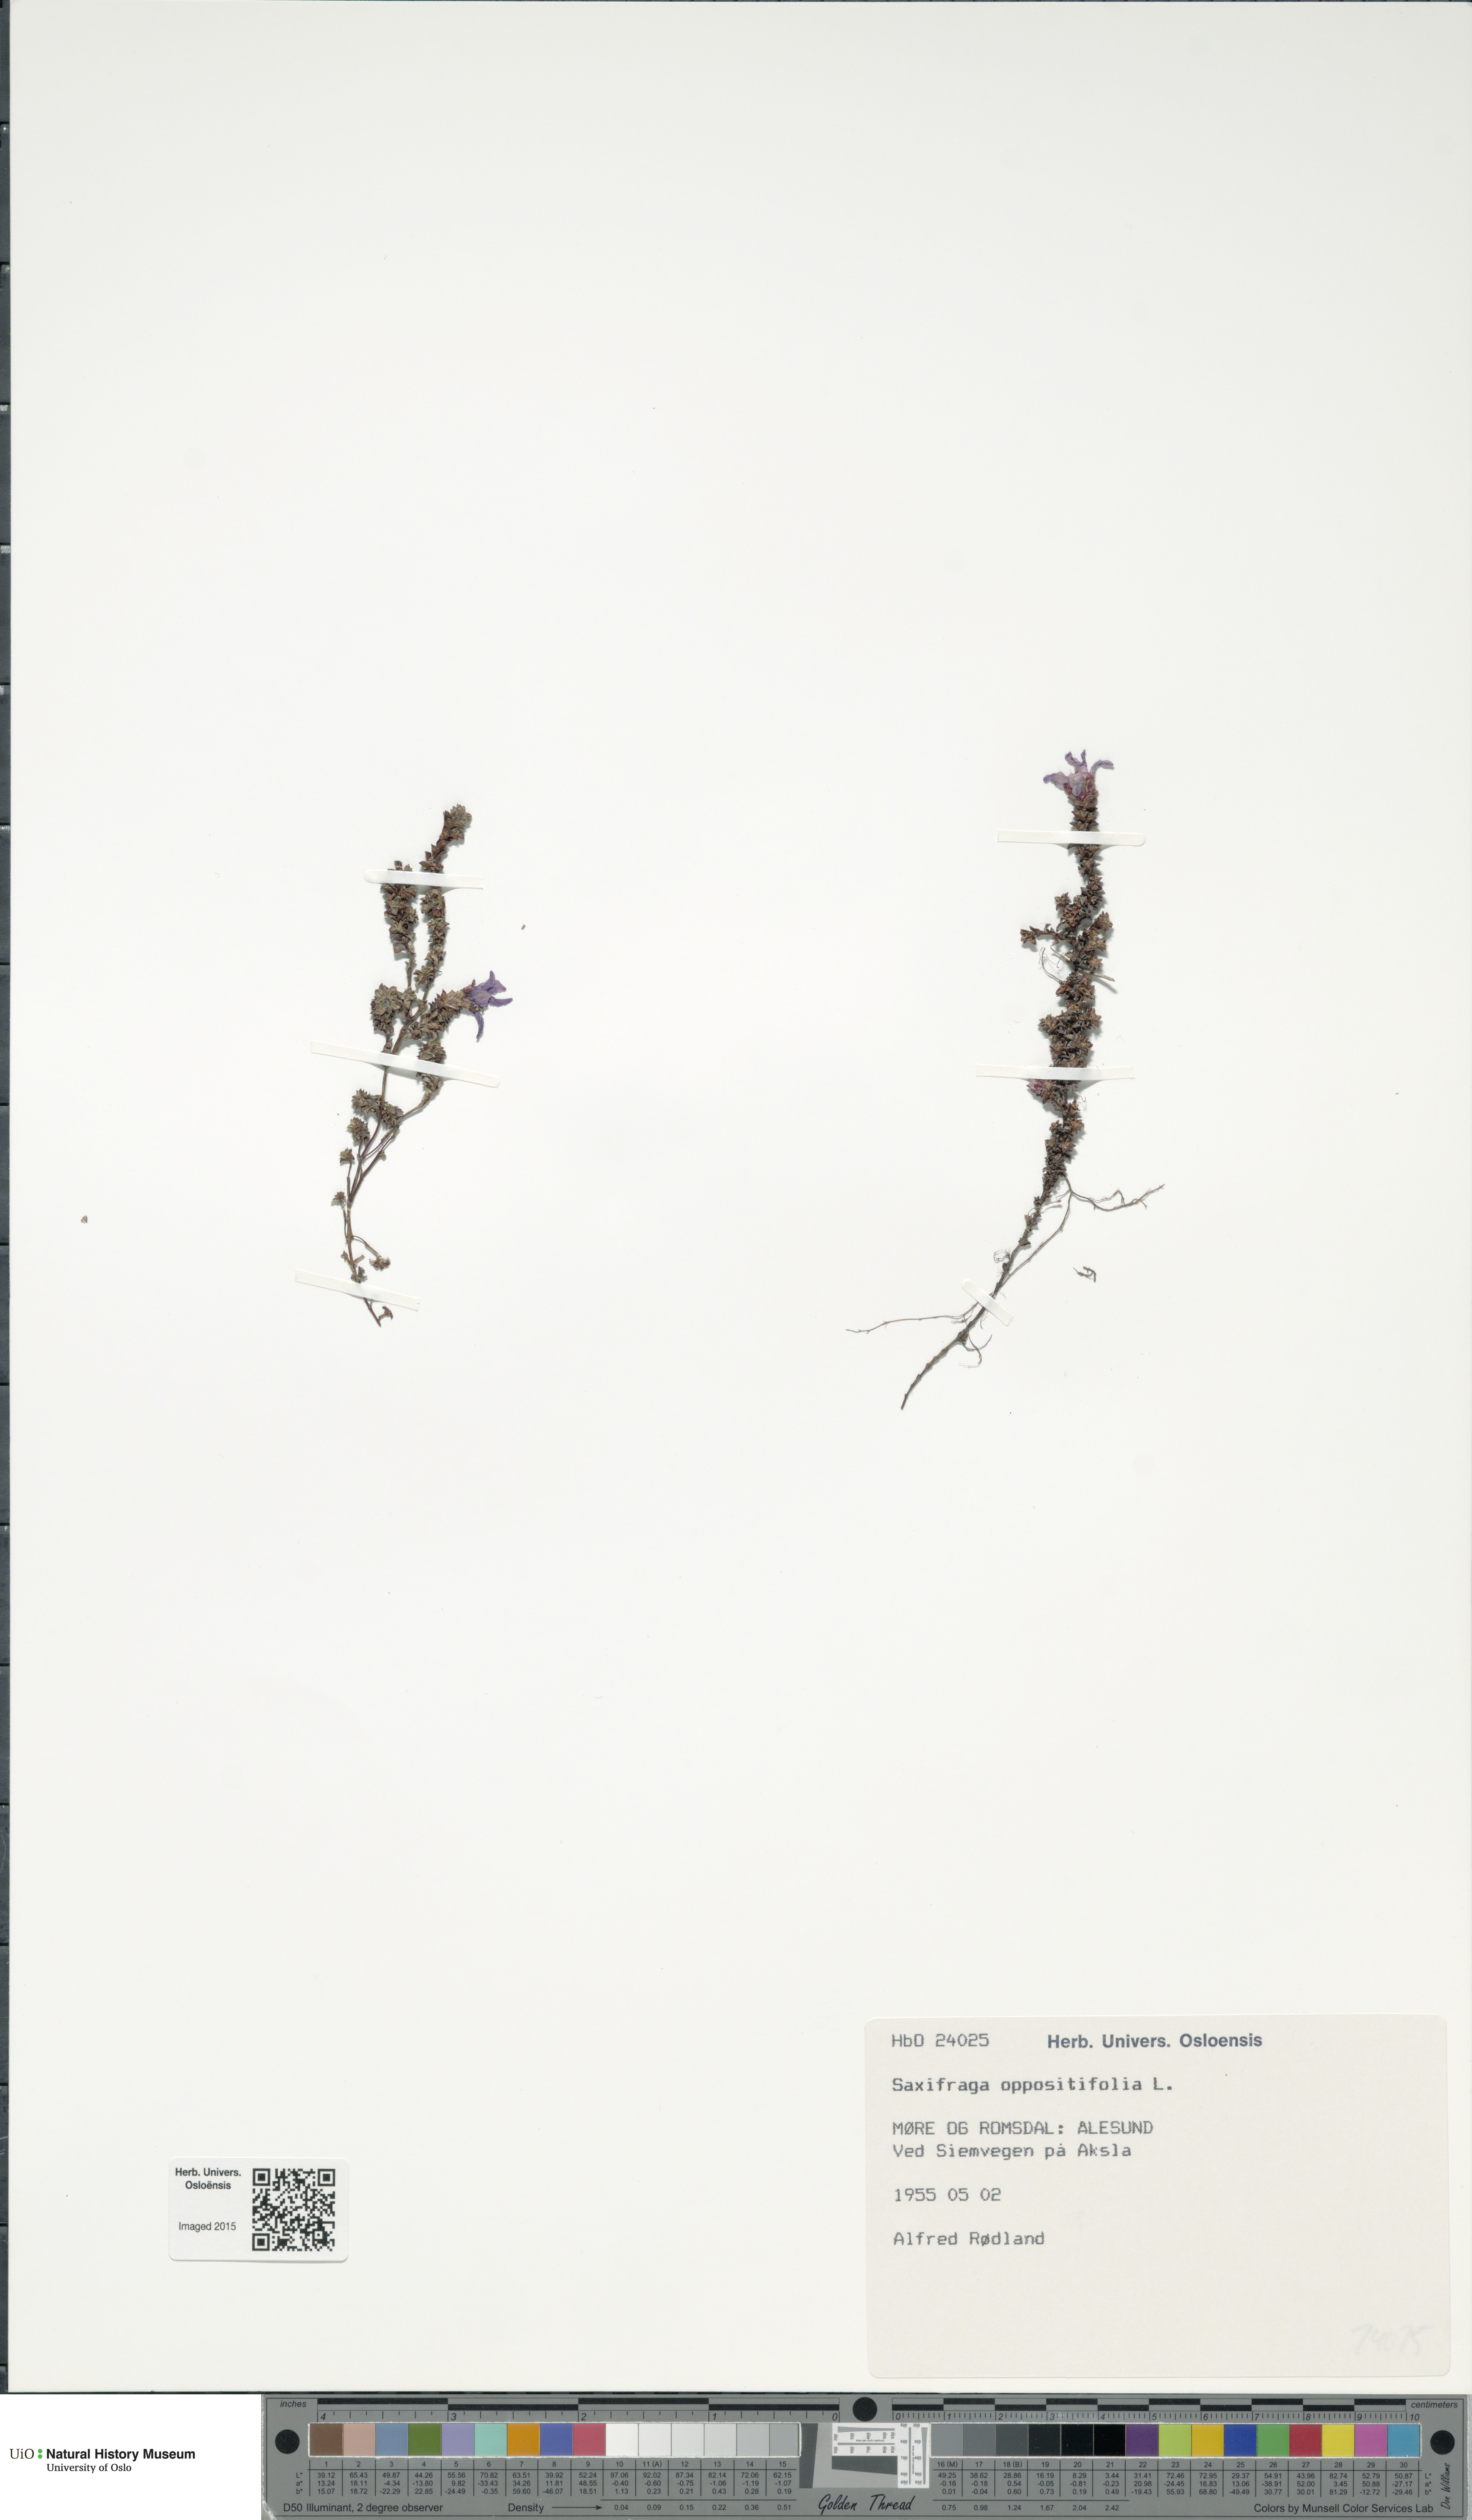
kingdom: Plantae
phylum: Tracheophyta
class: Magnoliopsida
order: Saxifragales
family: Saxifragaceae
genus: Saxifraga
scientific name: Saxifraga oppositifolia
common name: Purple saxifrage
